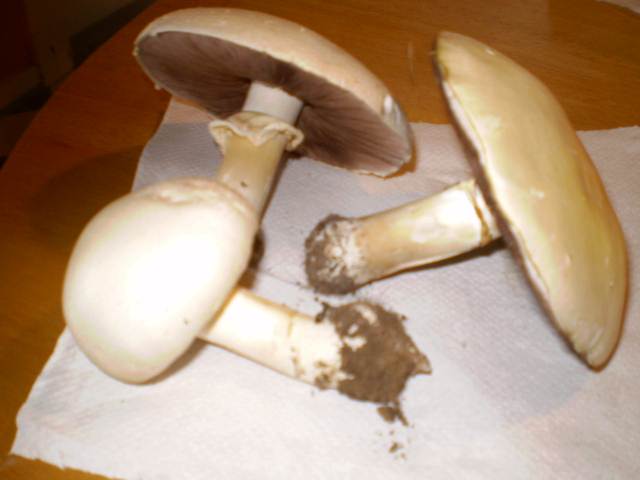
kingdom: Fungi
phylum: Basidiomycota
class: Agaricomycetes
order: Agaricales
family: Agaricaceae
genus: Agaricus
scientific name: Agaricus arvensis
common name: ager-champignon
